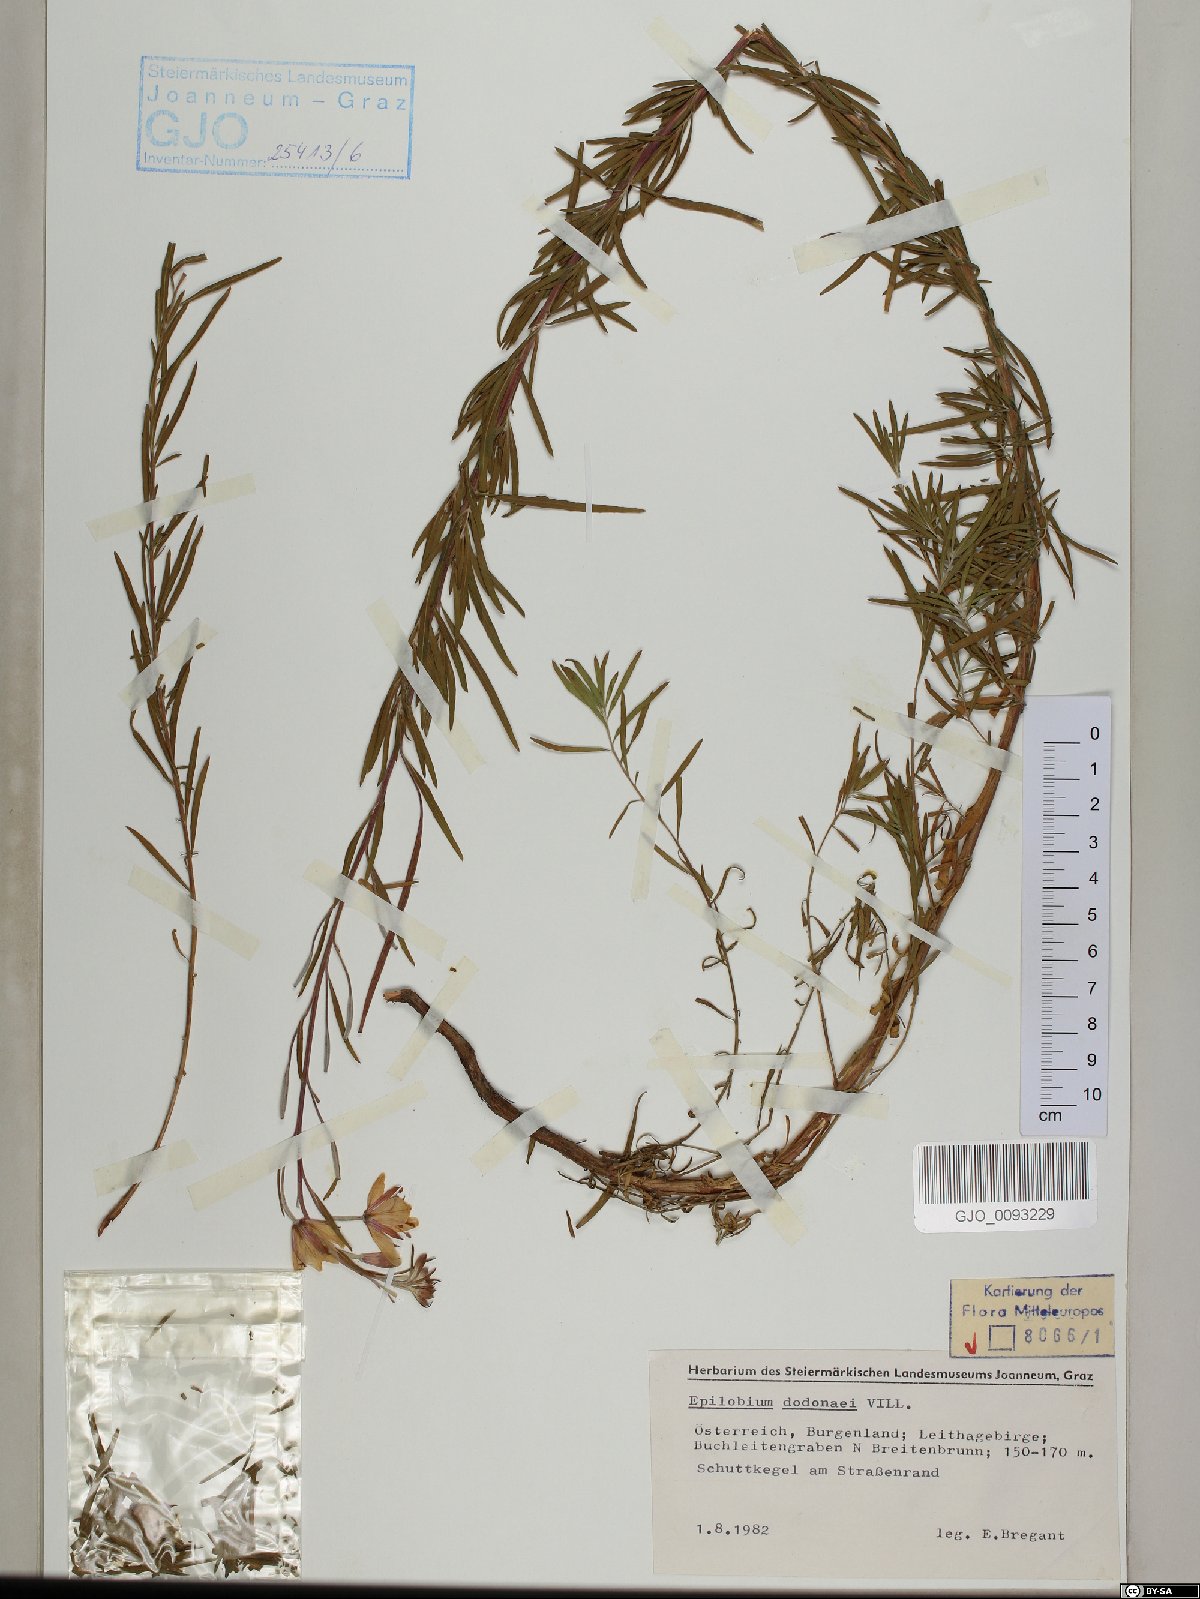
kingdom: Plantae
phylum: Tracheophyta
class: Magnoliopsida
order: Myrtales
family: Onagraceae
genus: Chamaenerion
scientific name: Chamaenerion dodonaei
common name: Rosemary-leaved willowherb
